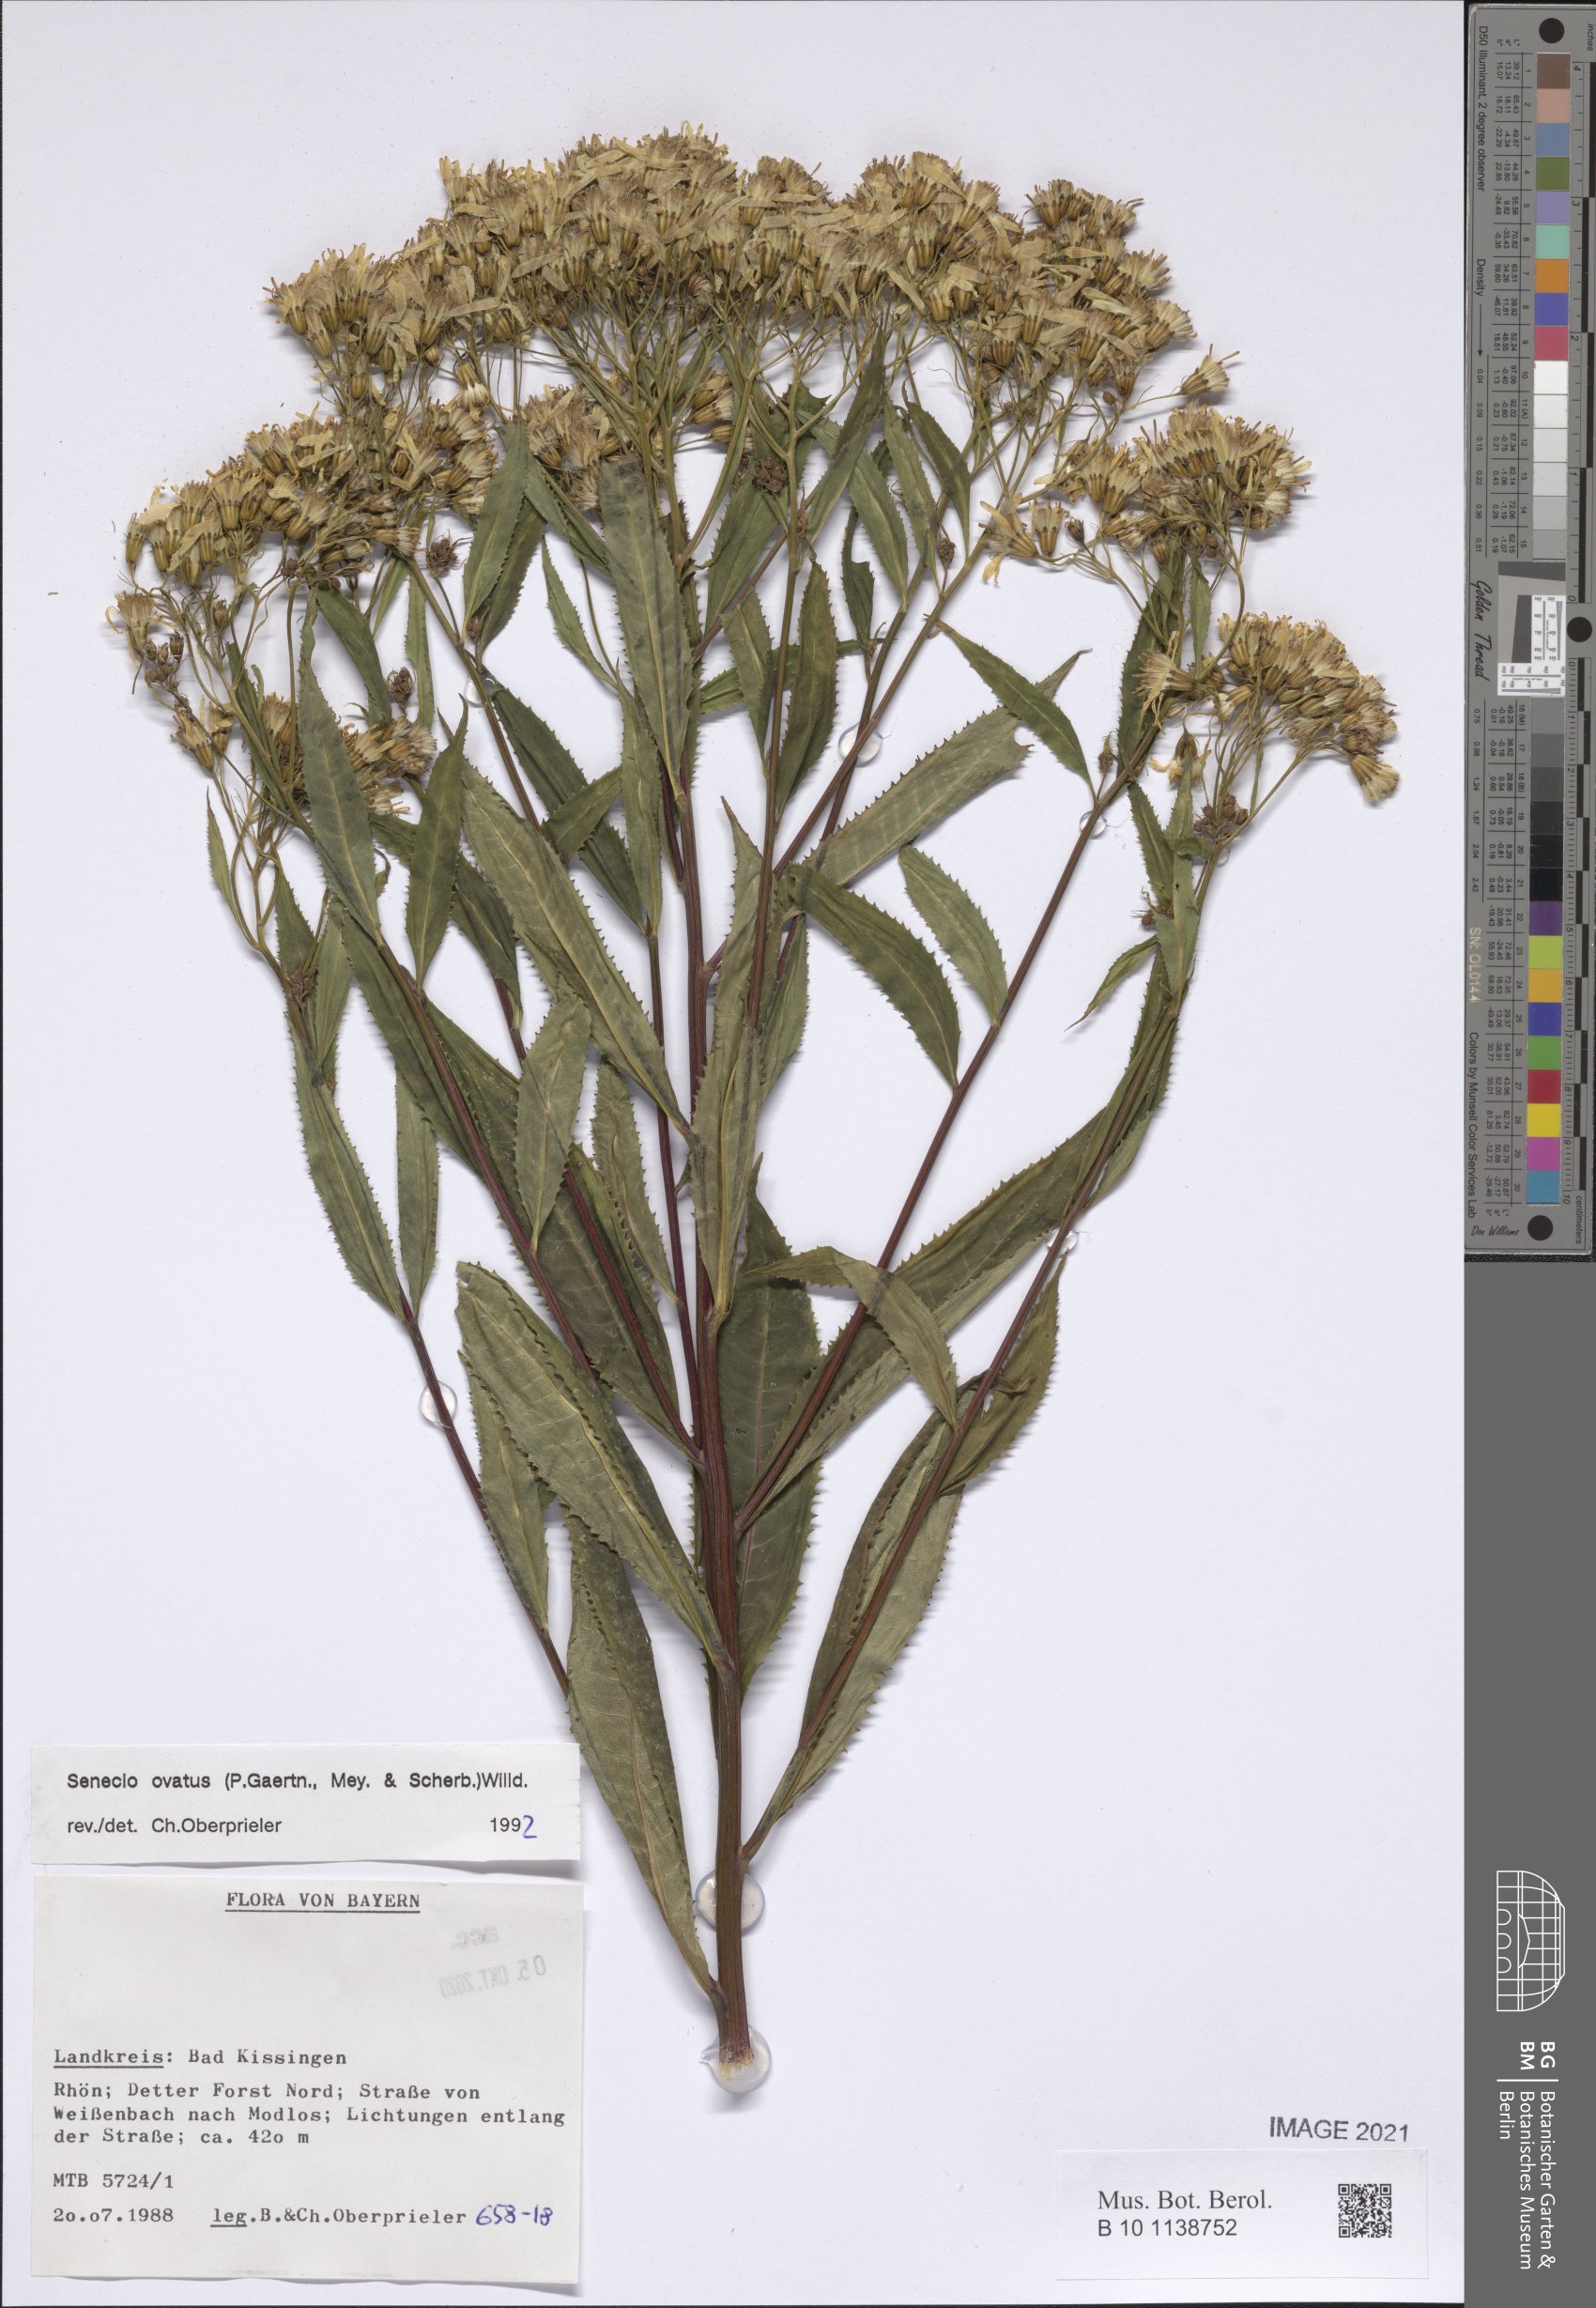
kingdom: Plantae
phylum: Tracheophyta
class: Magnoliopsida
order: Asterales
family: Asteraceae
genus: Senecio
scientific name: Senecio ovatus
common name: Wood ragwort
